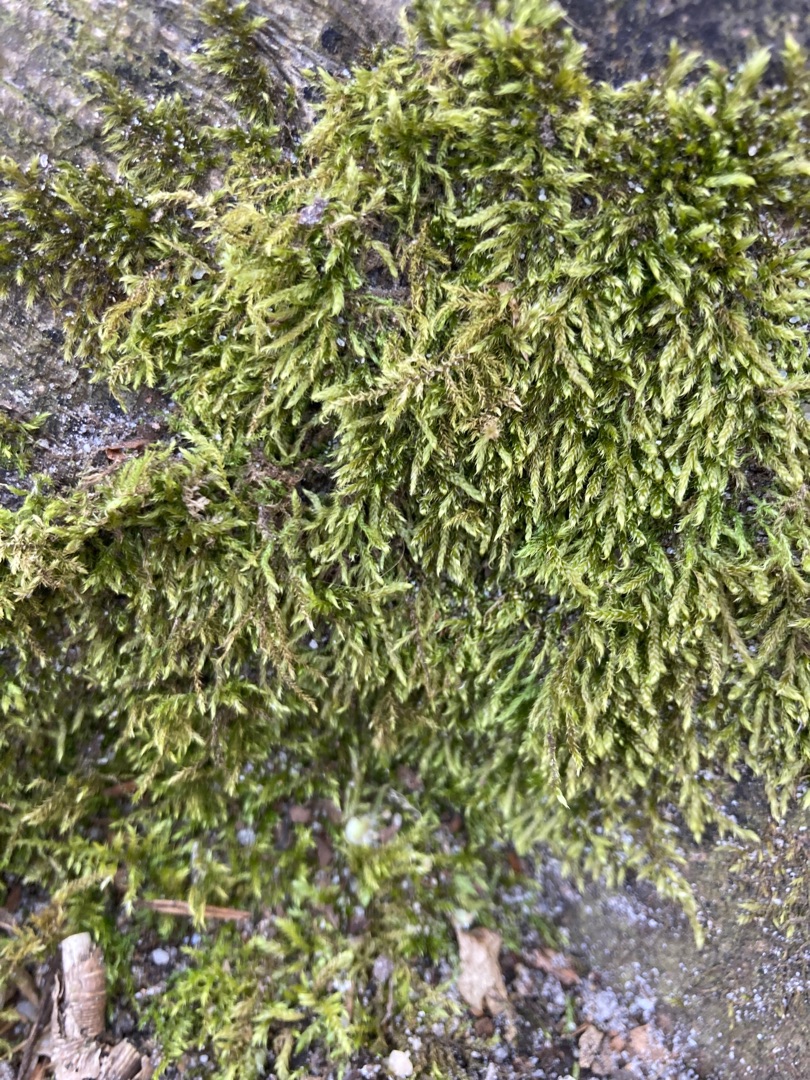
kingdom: Plantae
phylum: Bryophyta
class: Bryopsida
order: Hypnales
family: Hypnaceae
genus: Hypnum
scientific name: Hypnum cupressiforme
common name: Almindelig cypresmos
